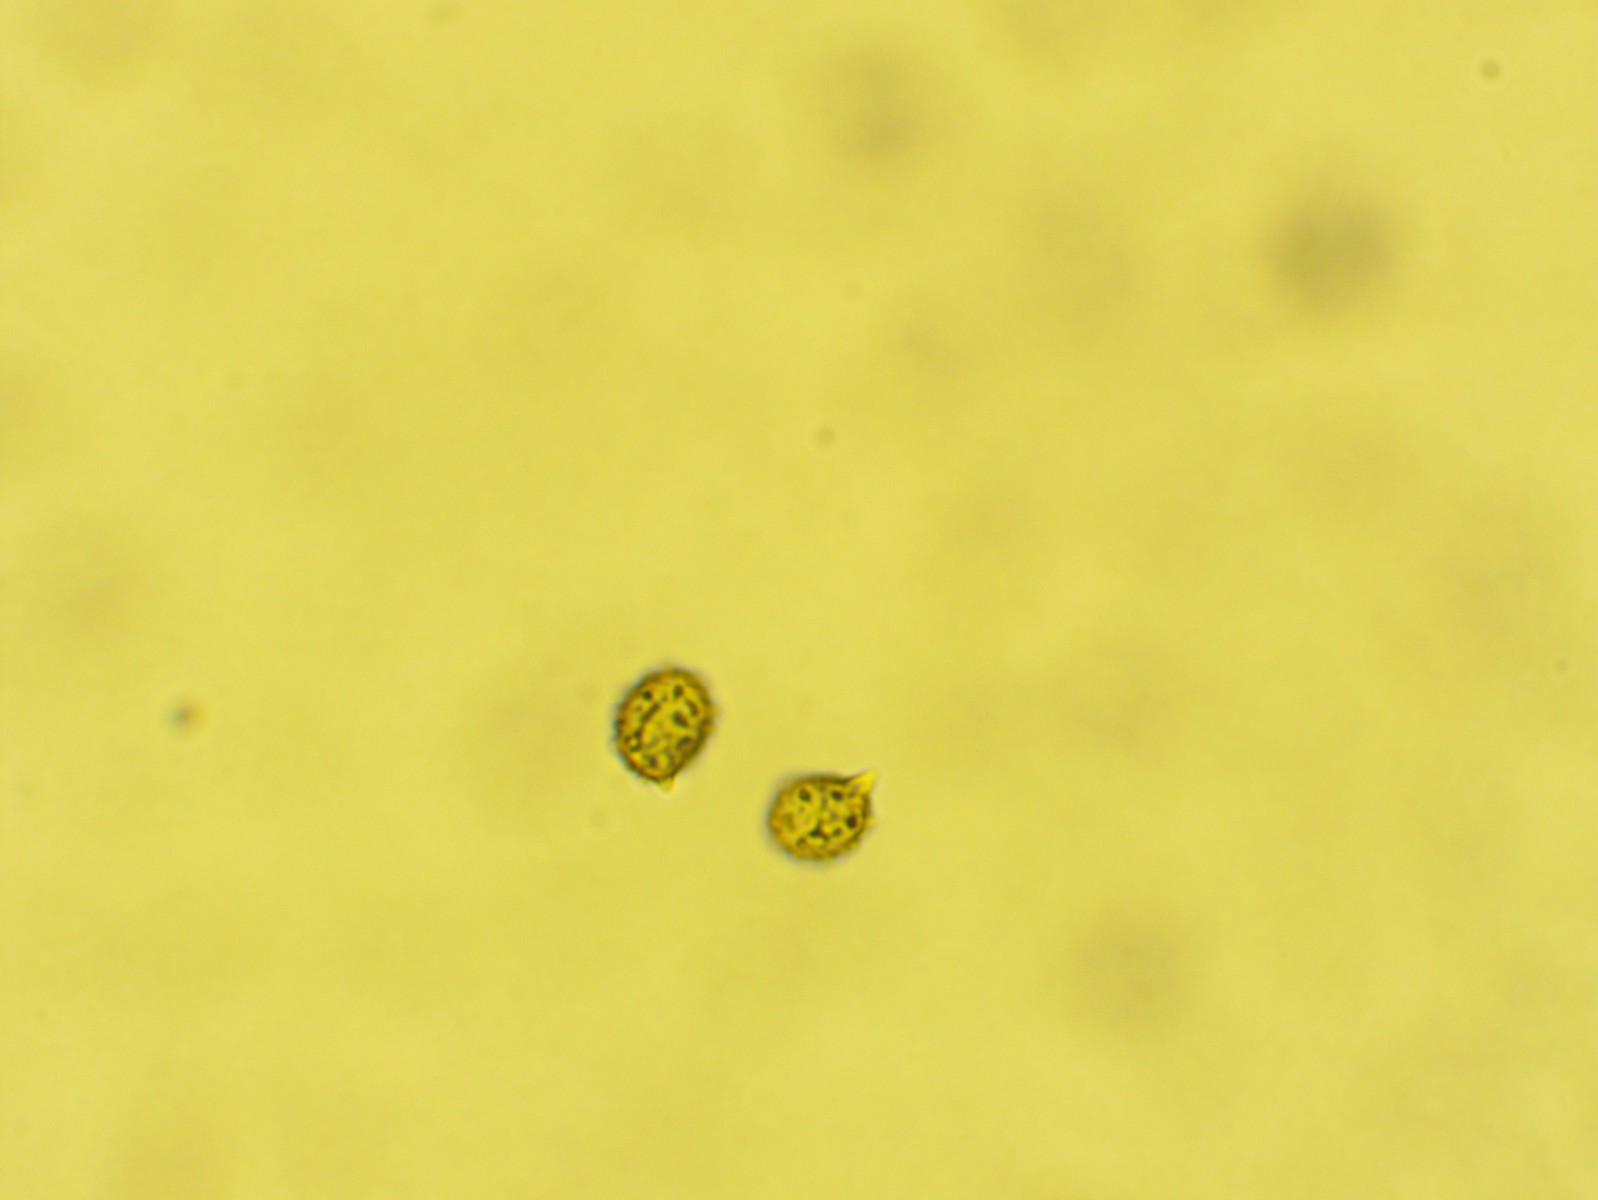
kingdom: Fungi
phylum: Basidiomycota
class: Agaricomycetes
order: Russulales
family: Russulaceae
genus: Russula
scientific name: Russula depallens
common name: falmende skørhat
